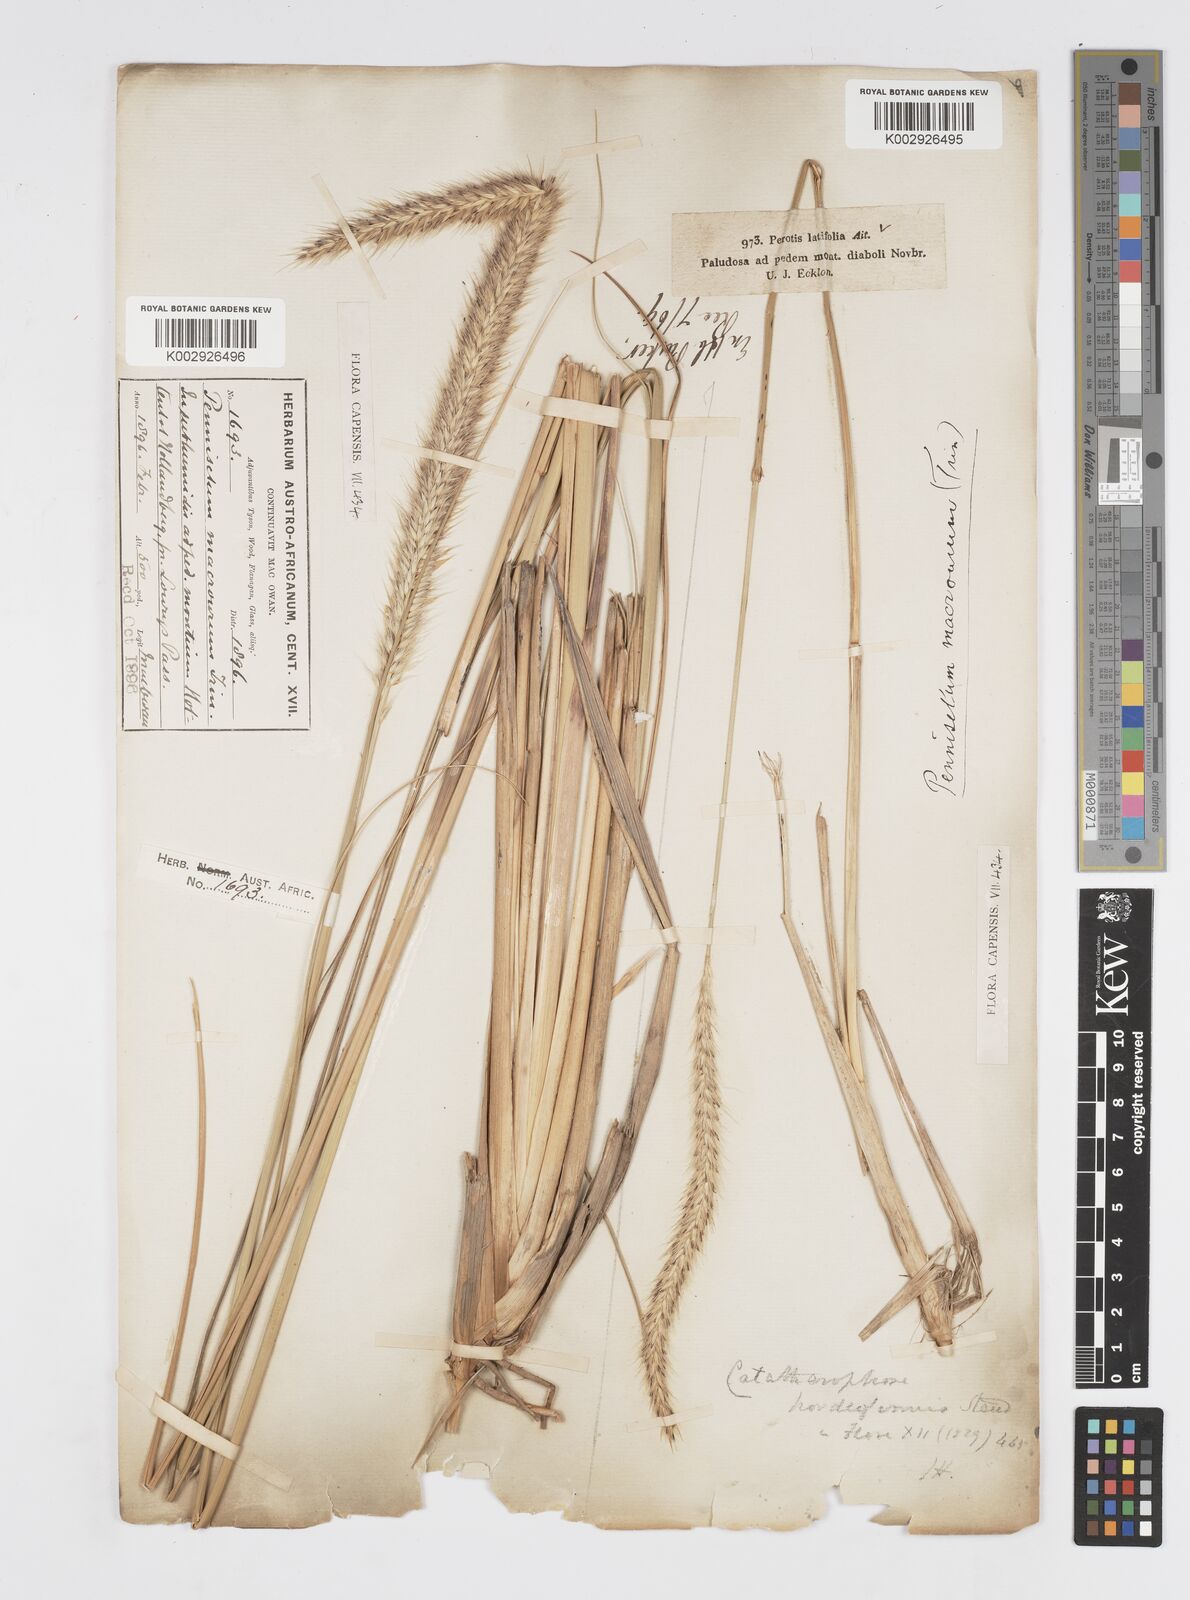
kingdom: Plantae
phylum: Tracheophyta
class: Liliopsida
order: Poales
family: Poaceae
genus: Cenchrus
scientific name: Cenchrus caudatus
